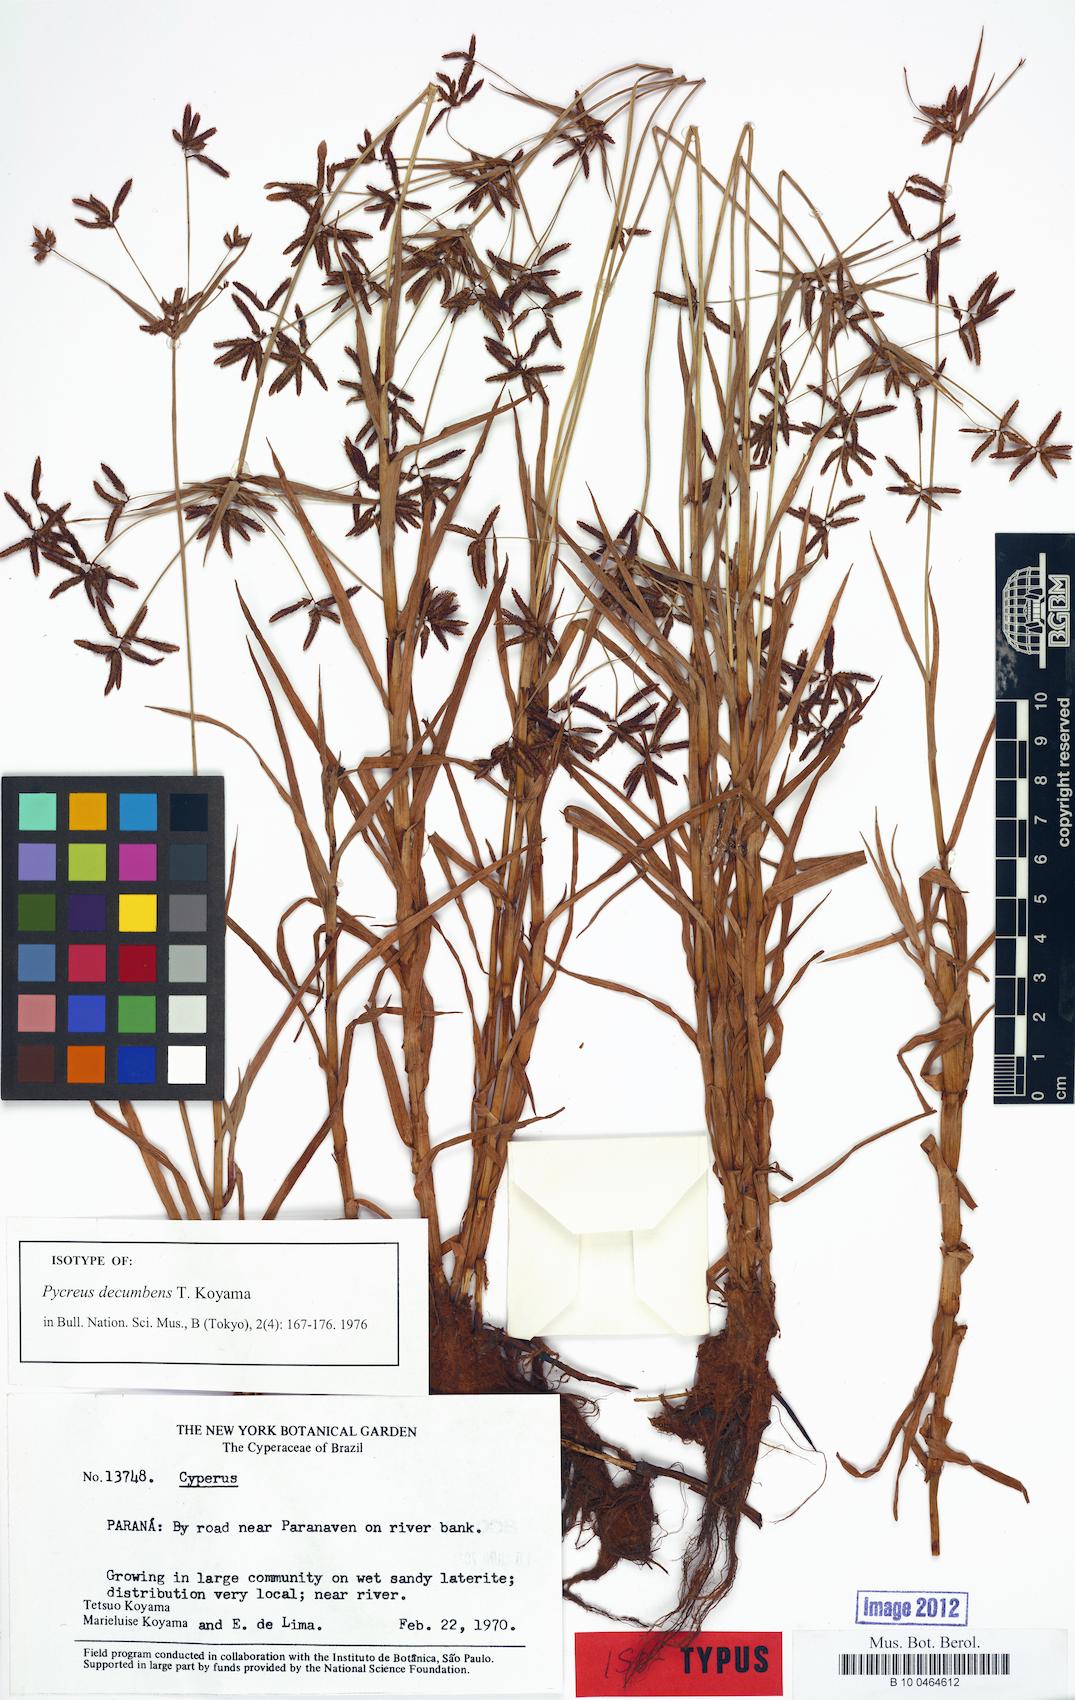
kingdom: Plantae
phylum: Tracheophyta
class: Liliopsida
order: Poales
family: Cyperaceae
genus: Cyperus
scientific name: Cyperus mundii
